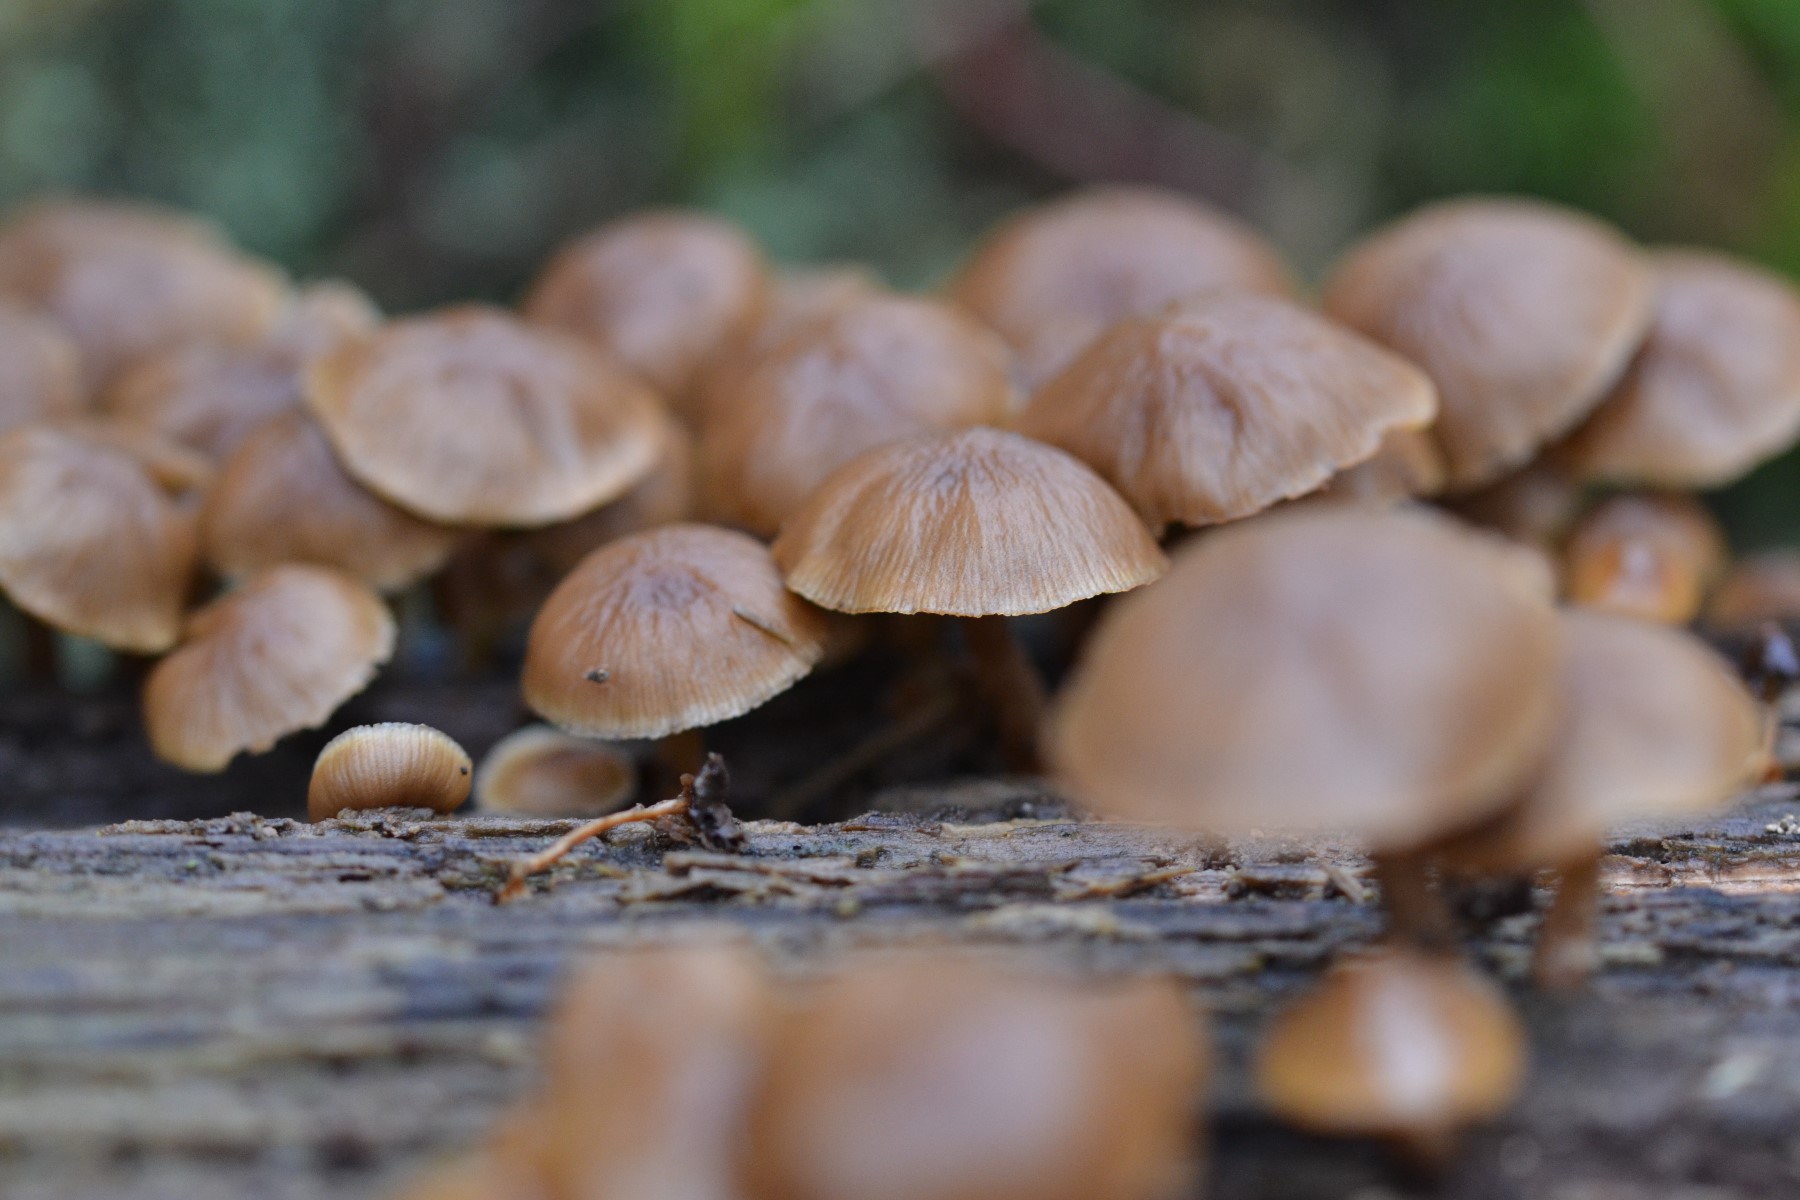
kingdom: Fungi
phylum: Basidiomycota
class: Agaricomycetes
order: Agaricales
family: Psathyrellaceae
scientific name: Psathyrellaceae
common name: mørkhatfamilien
